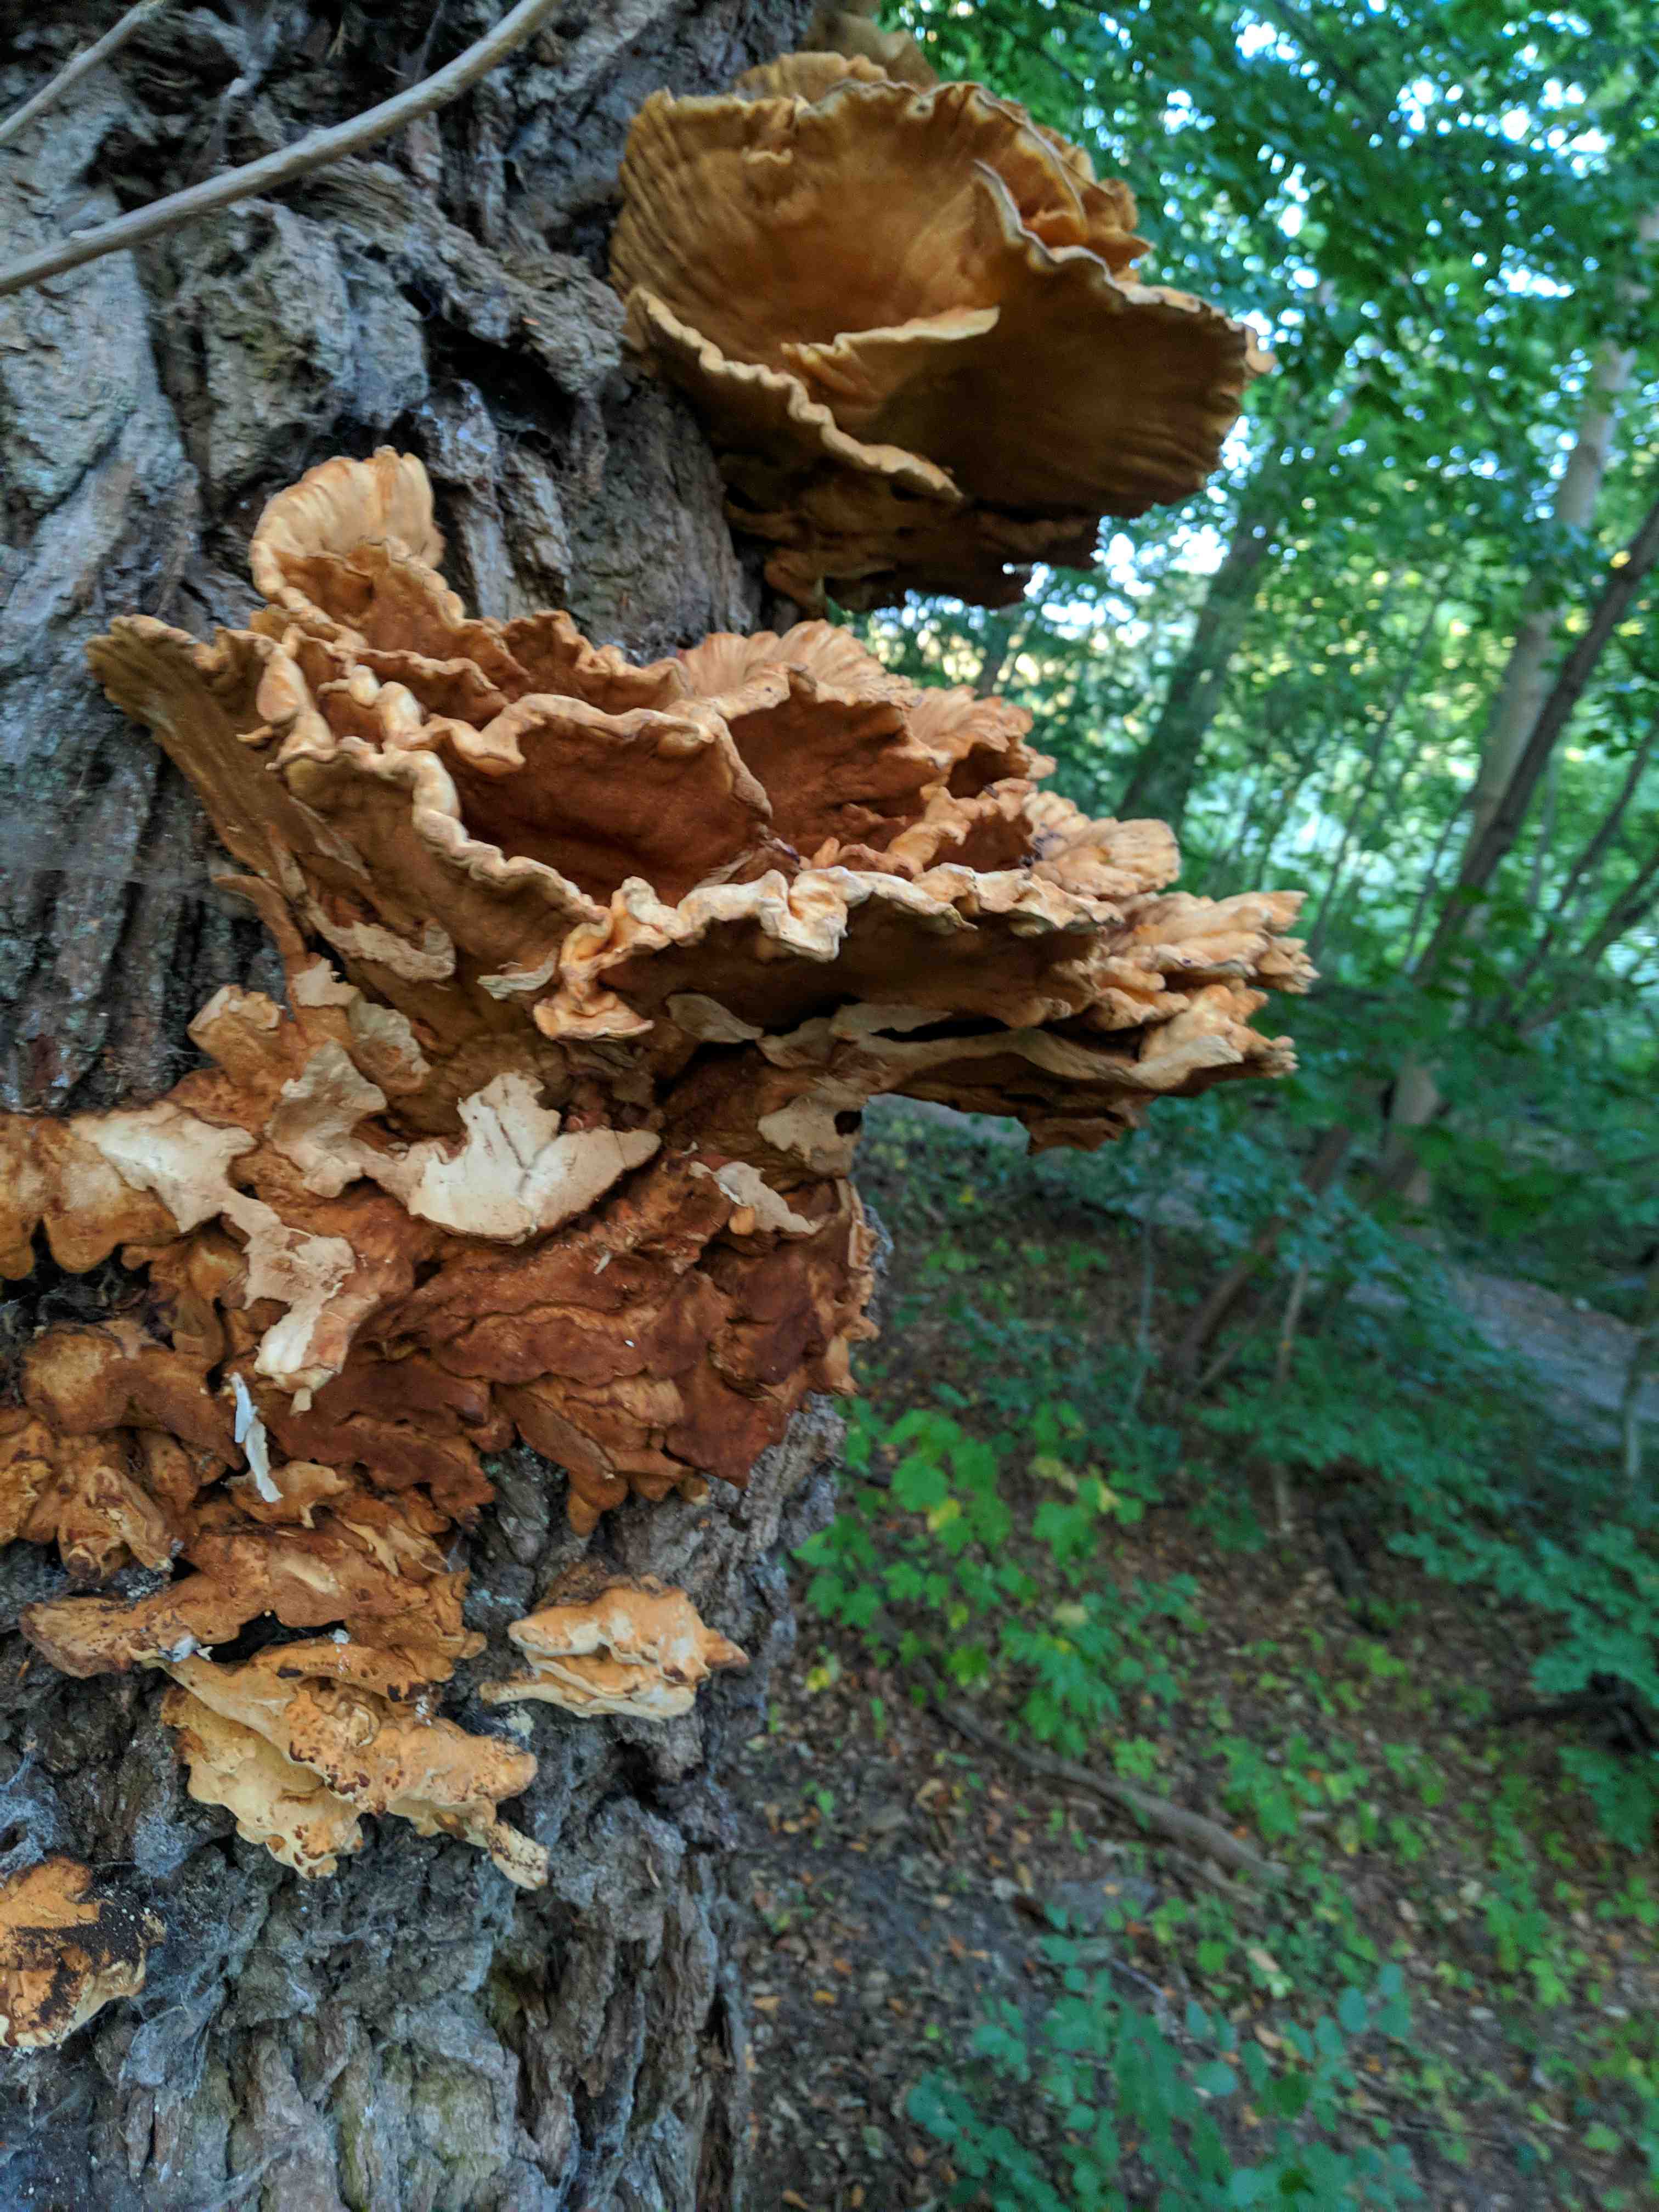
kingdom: Fungi
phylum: Basidiomycota
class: Agaricomycetes
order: Polyporales
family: Laetiporaceae
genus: Laetiporus
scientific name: Laetiporus sulphureus
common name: svovlporesvamp
